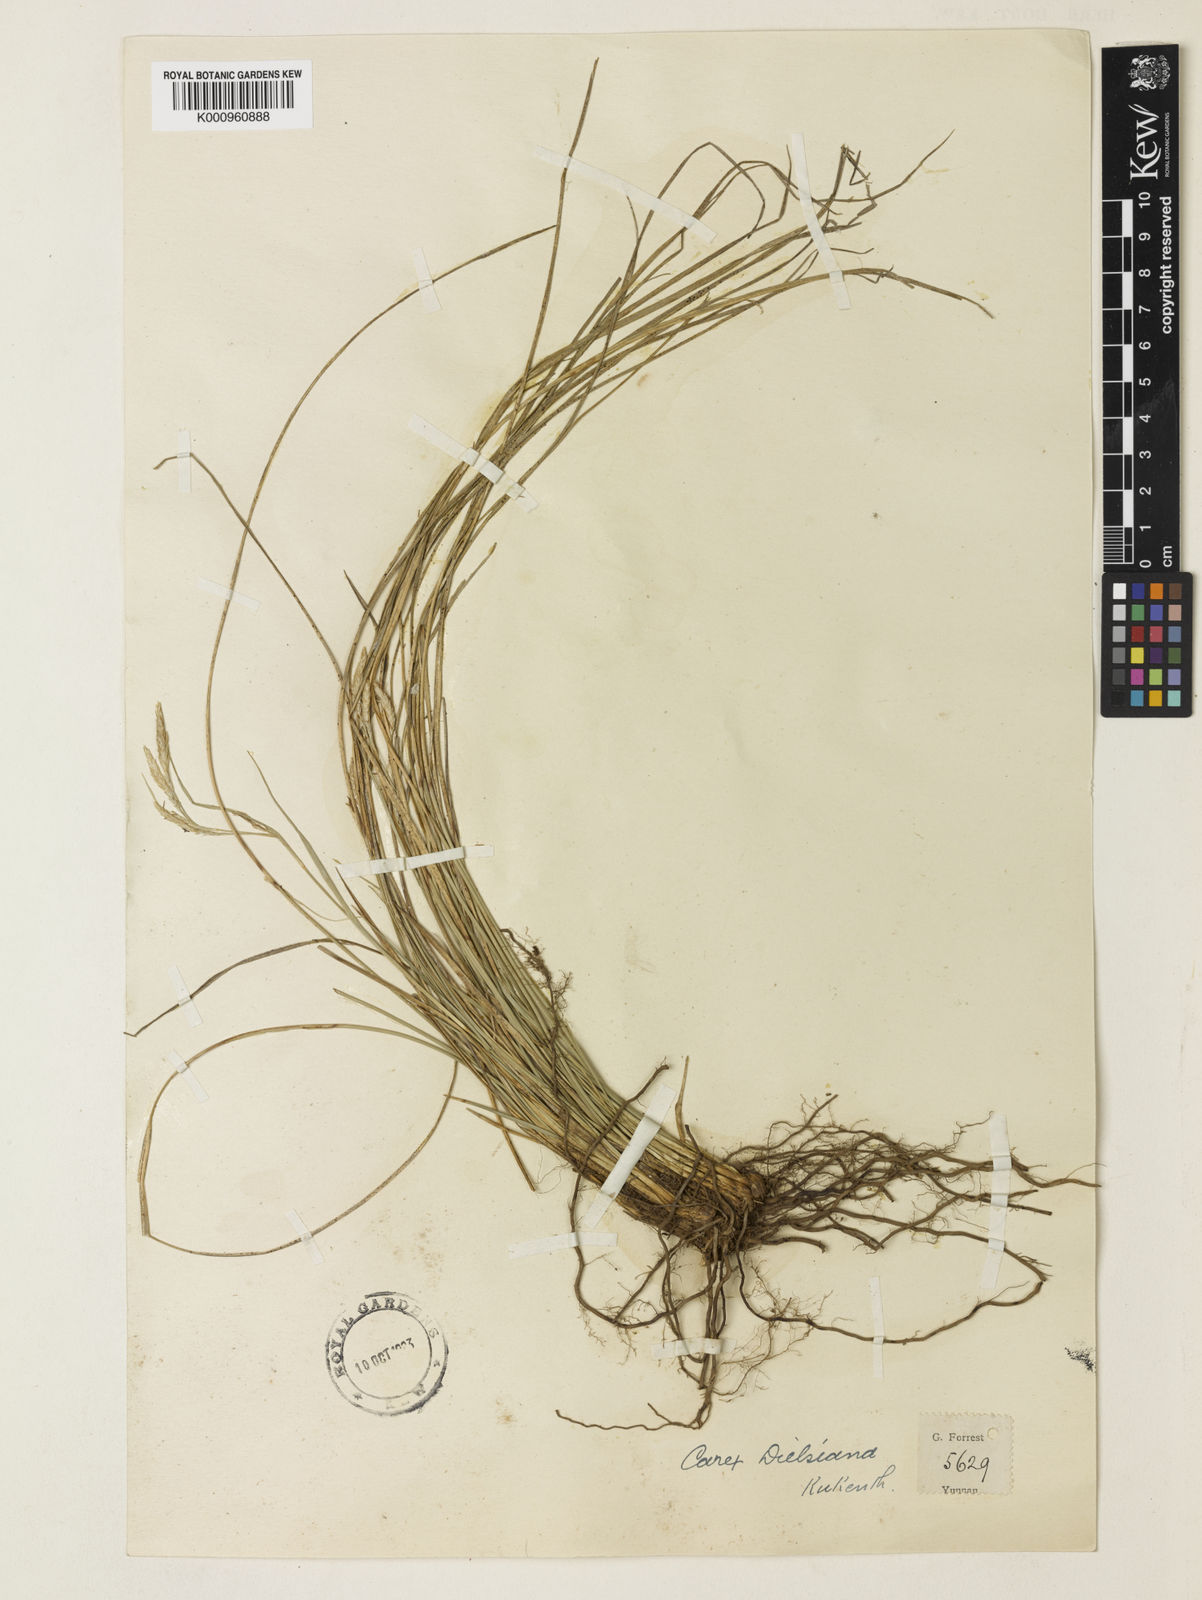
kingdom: Plantae
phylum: Tracheophyta
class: Liliopsida
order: Poales
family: Cyperaceae
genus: Carex
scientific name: Carex
